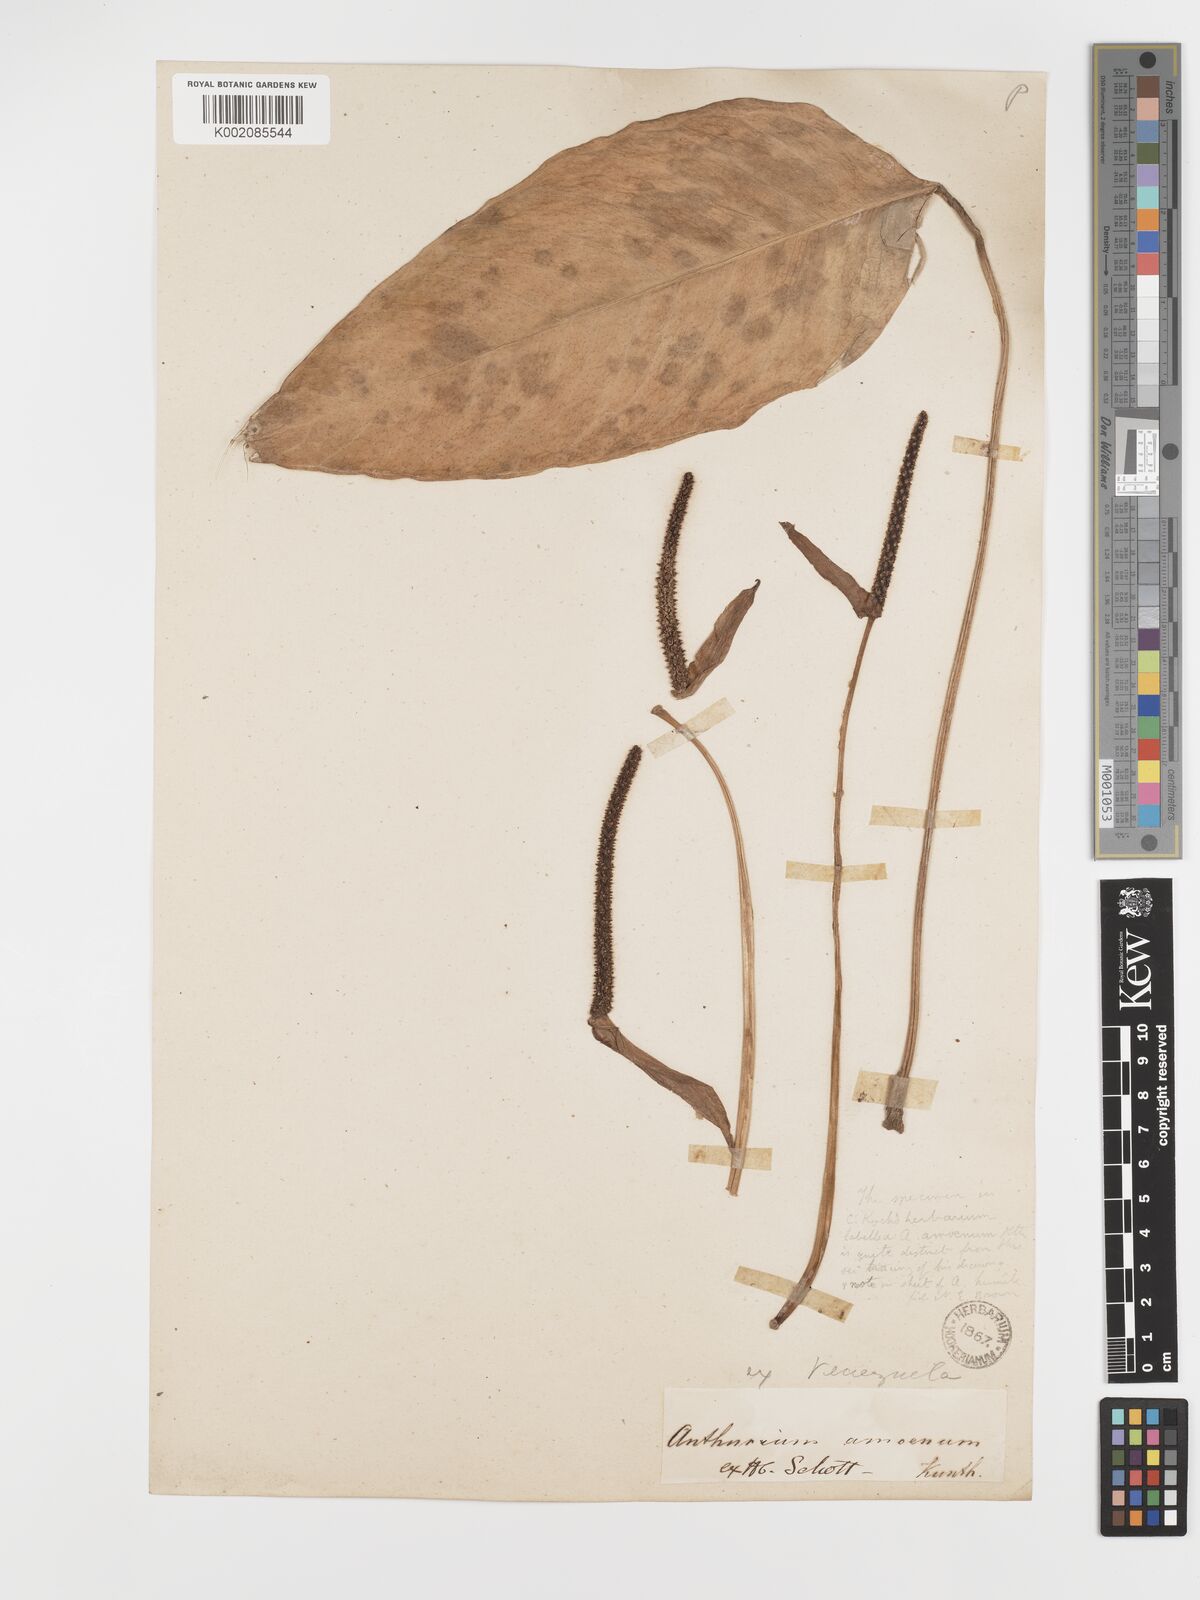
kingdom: Plantae
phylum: Tracheophyta
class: Liliopsida
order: Alismatales
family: Araceae
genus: Anthurium
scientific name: Anthurium amoenum
